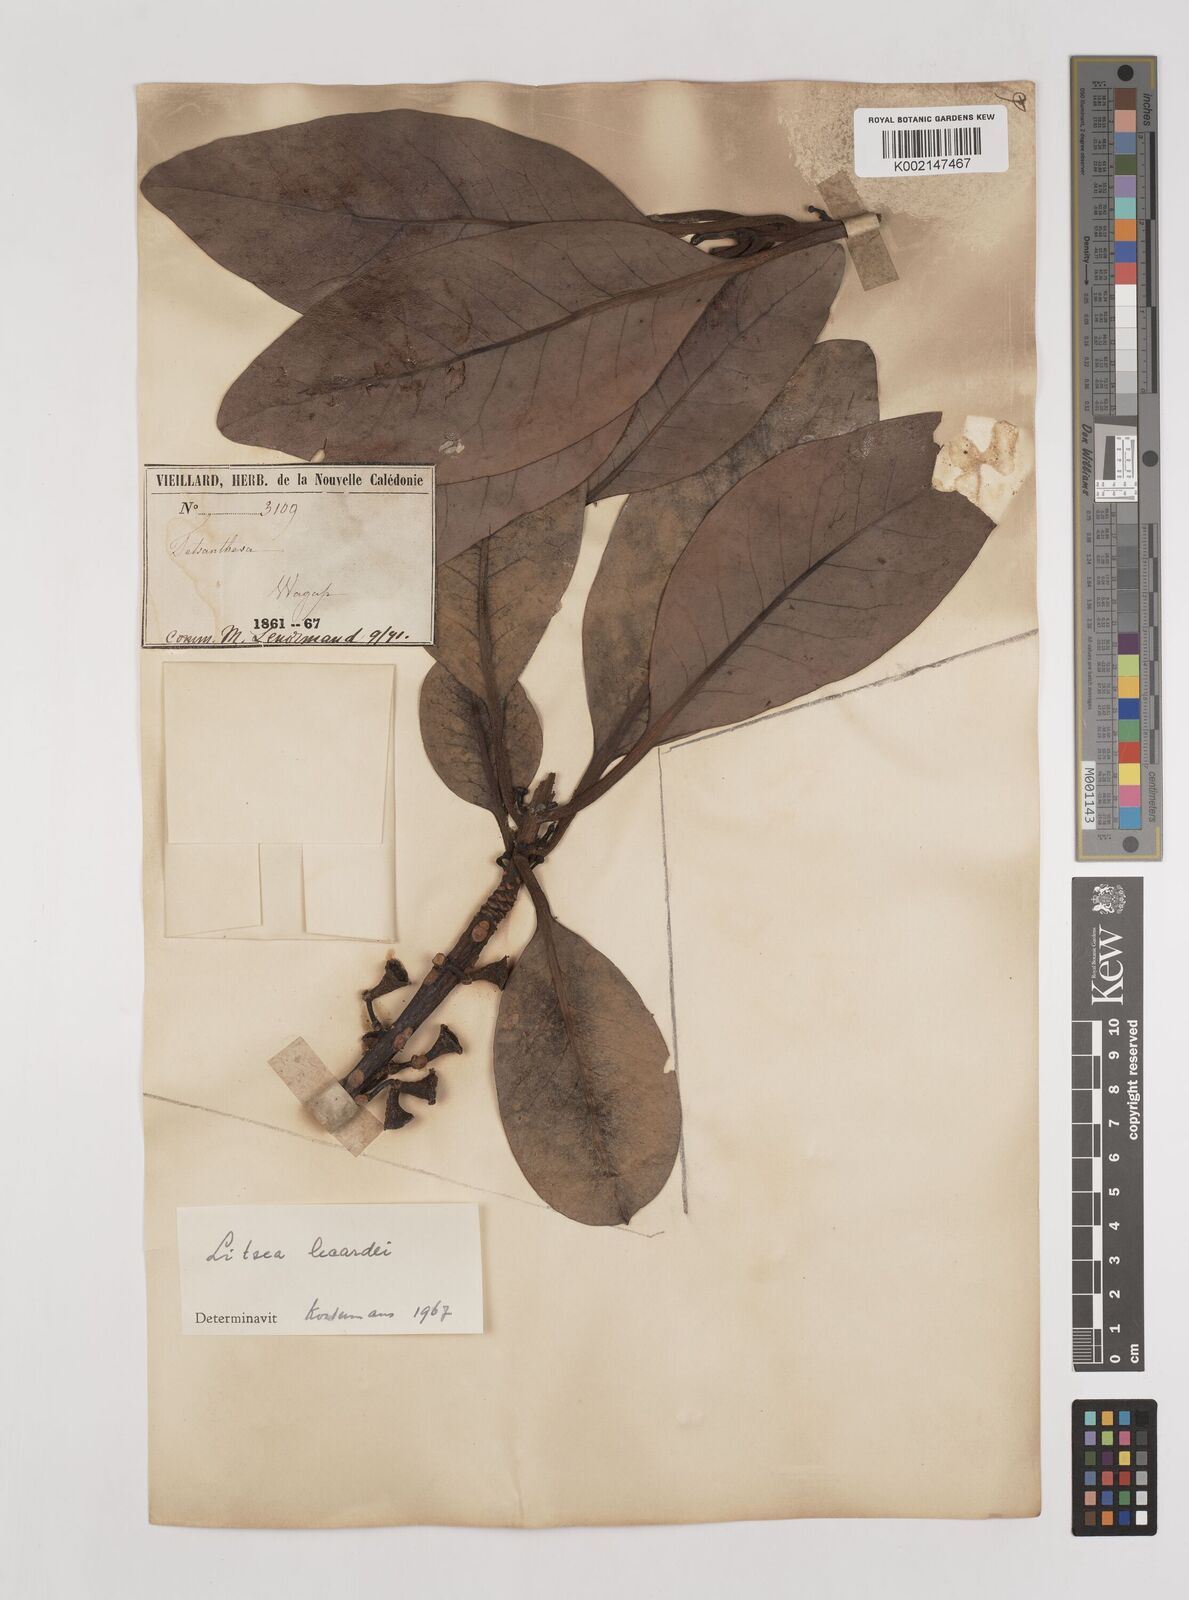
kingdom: Plantae
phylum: Tracheophyta
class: Magnoliopsida
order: Laurales
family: Lauraceae
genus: Litsea
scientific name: Litsea lecardii
